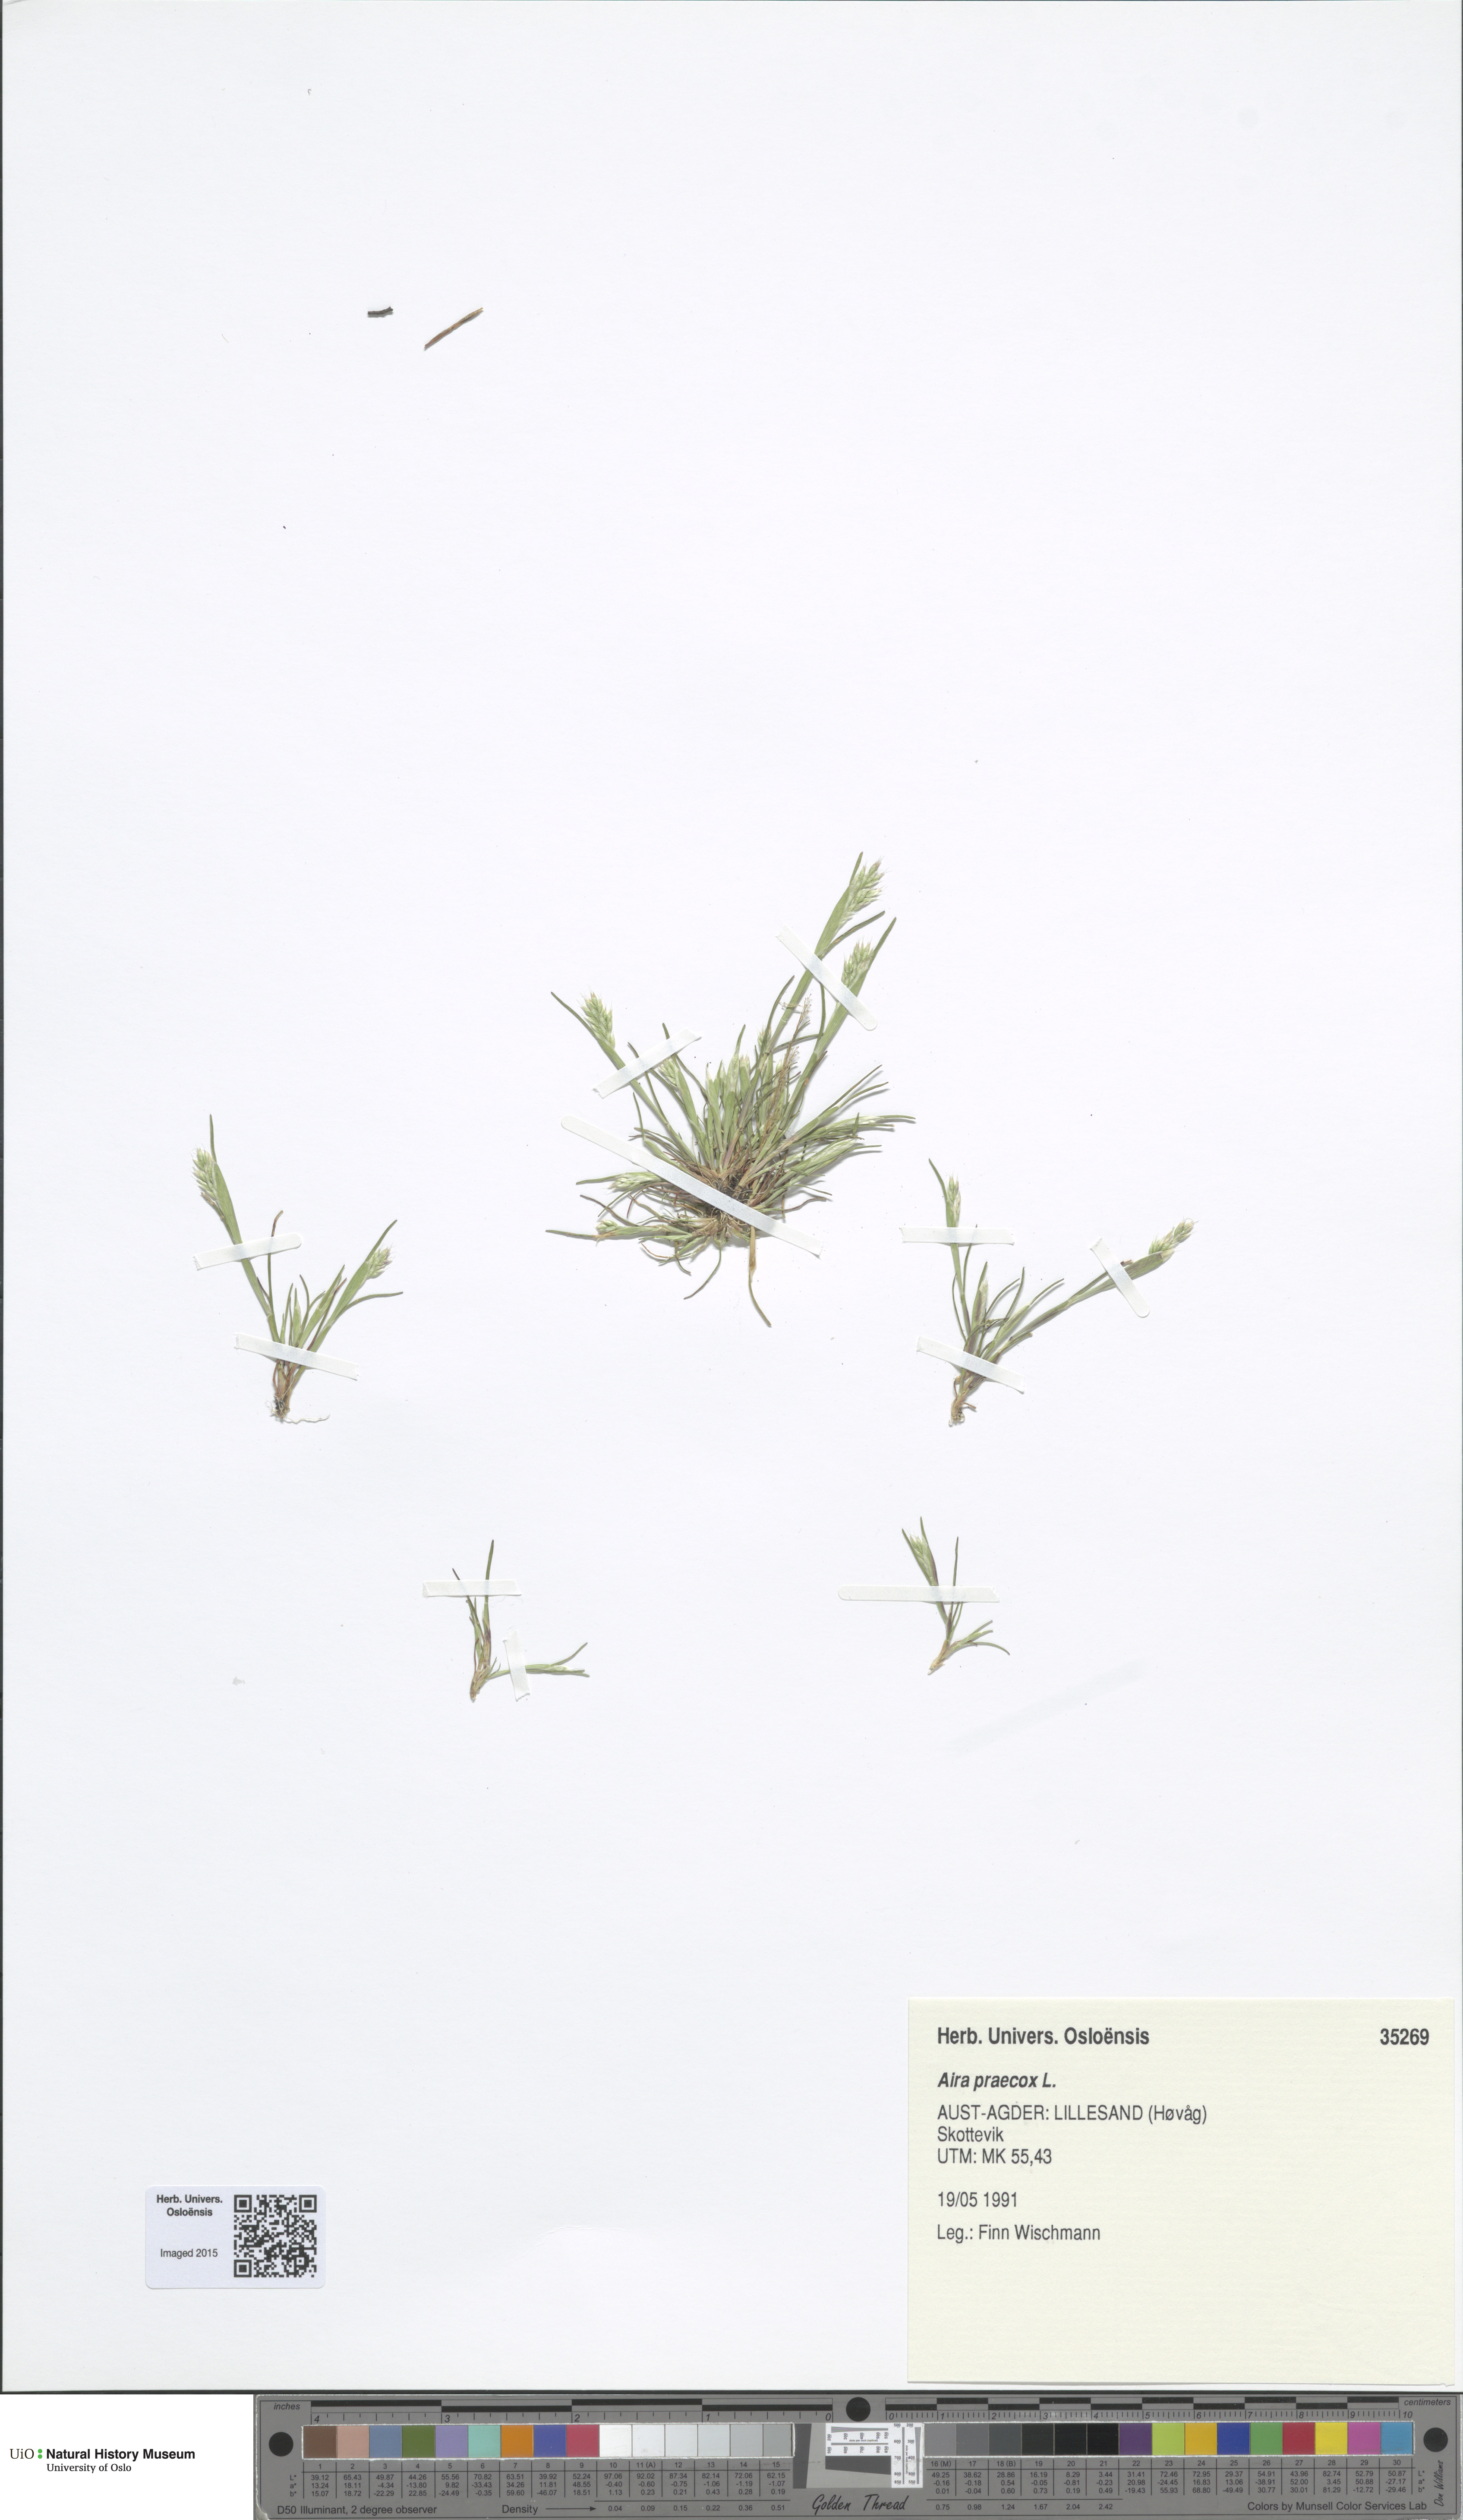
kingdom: Plantae
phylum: Tracheophyta
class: Liliopsida
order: Poales
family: Poaceae
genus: Aira
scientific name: Aira praecox
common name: Early hair-grass
